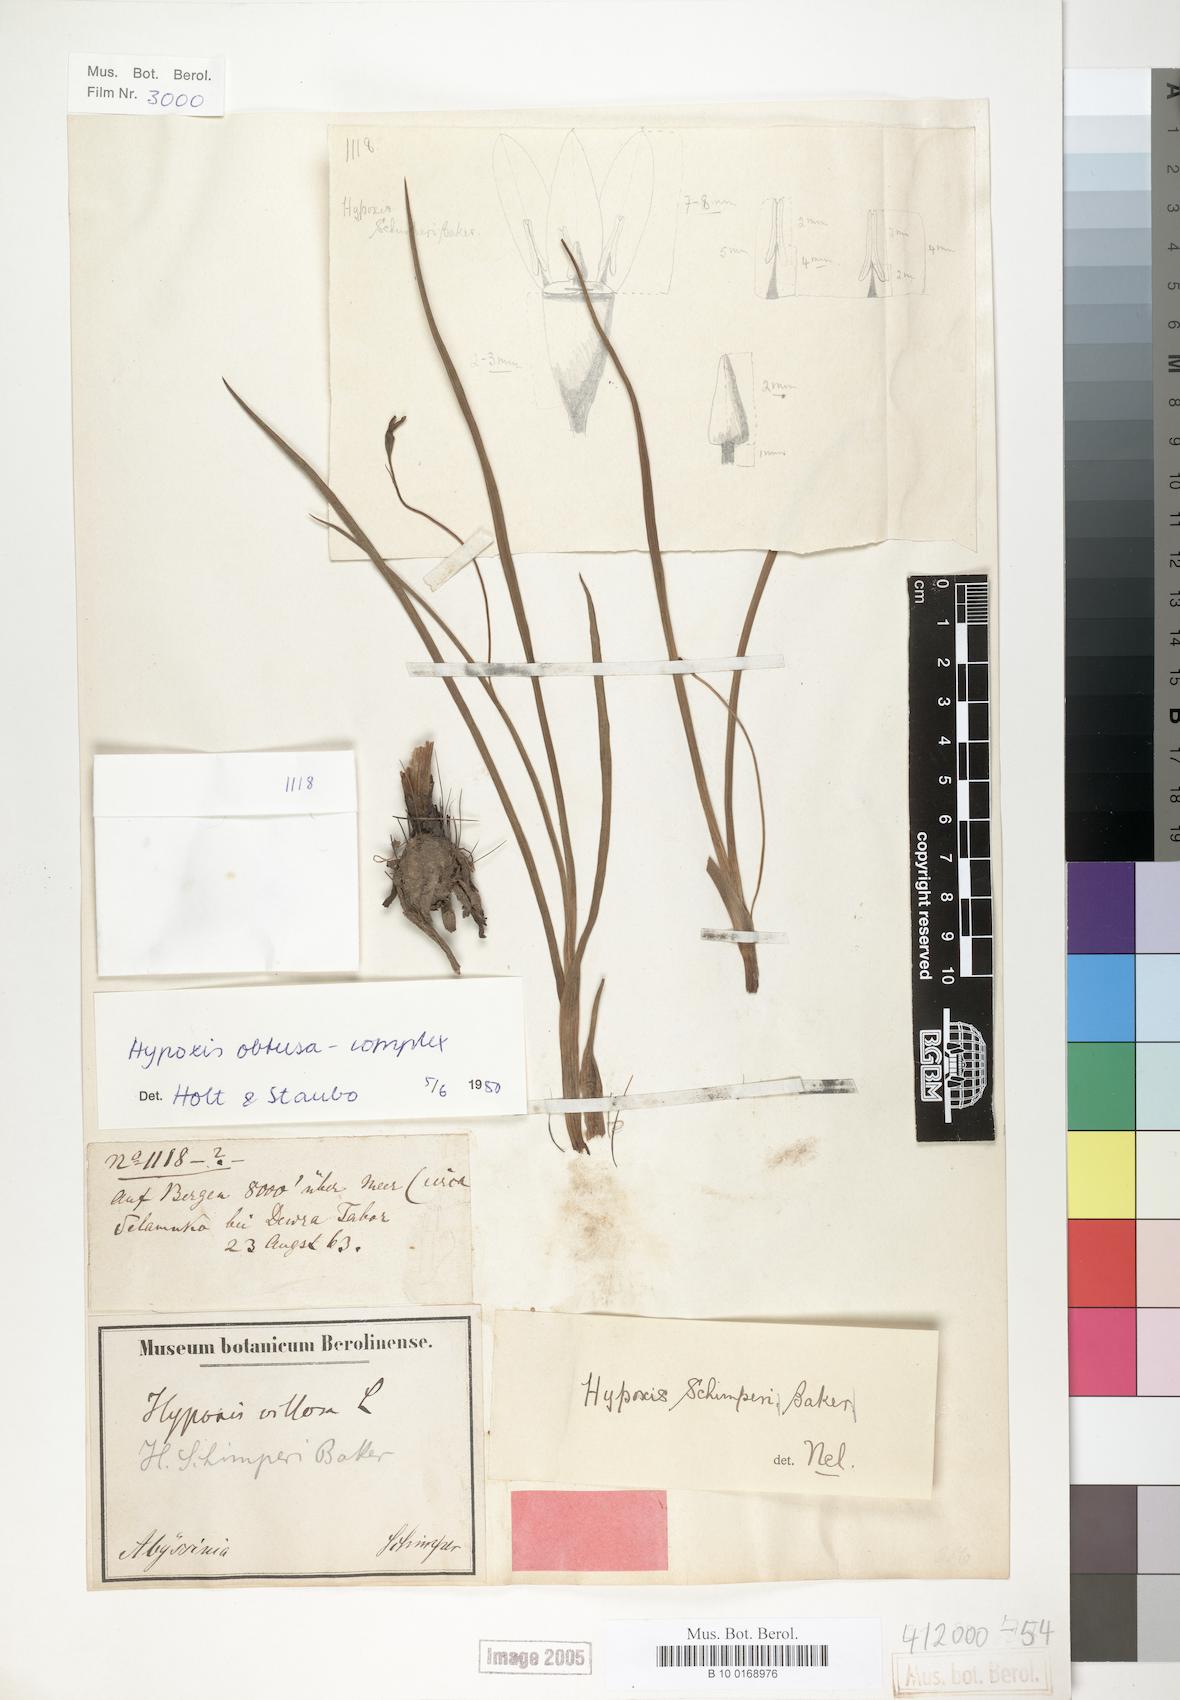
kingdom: Plantae
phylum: Tracheophyta
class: Liliopsida
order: Asparagales
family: Hypoxidaceae
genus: Hypoxis
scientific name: Hypoxis
